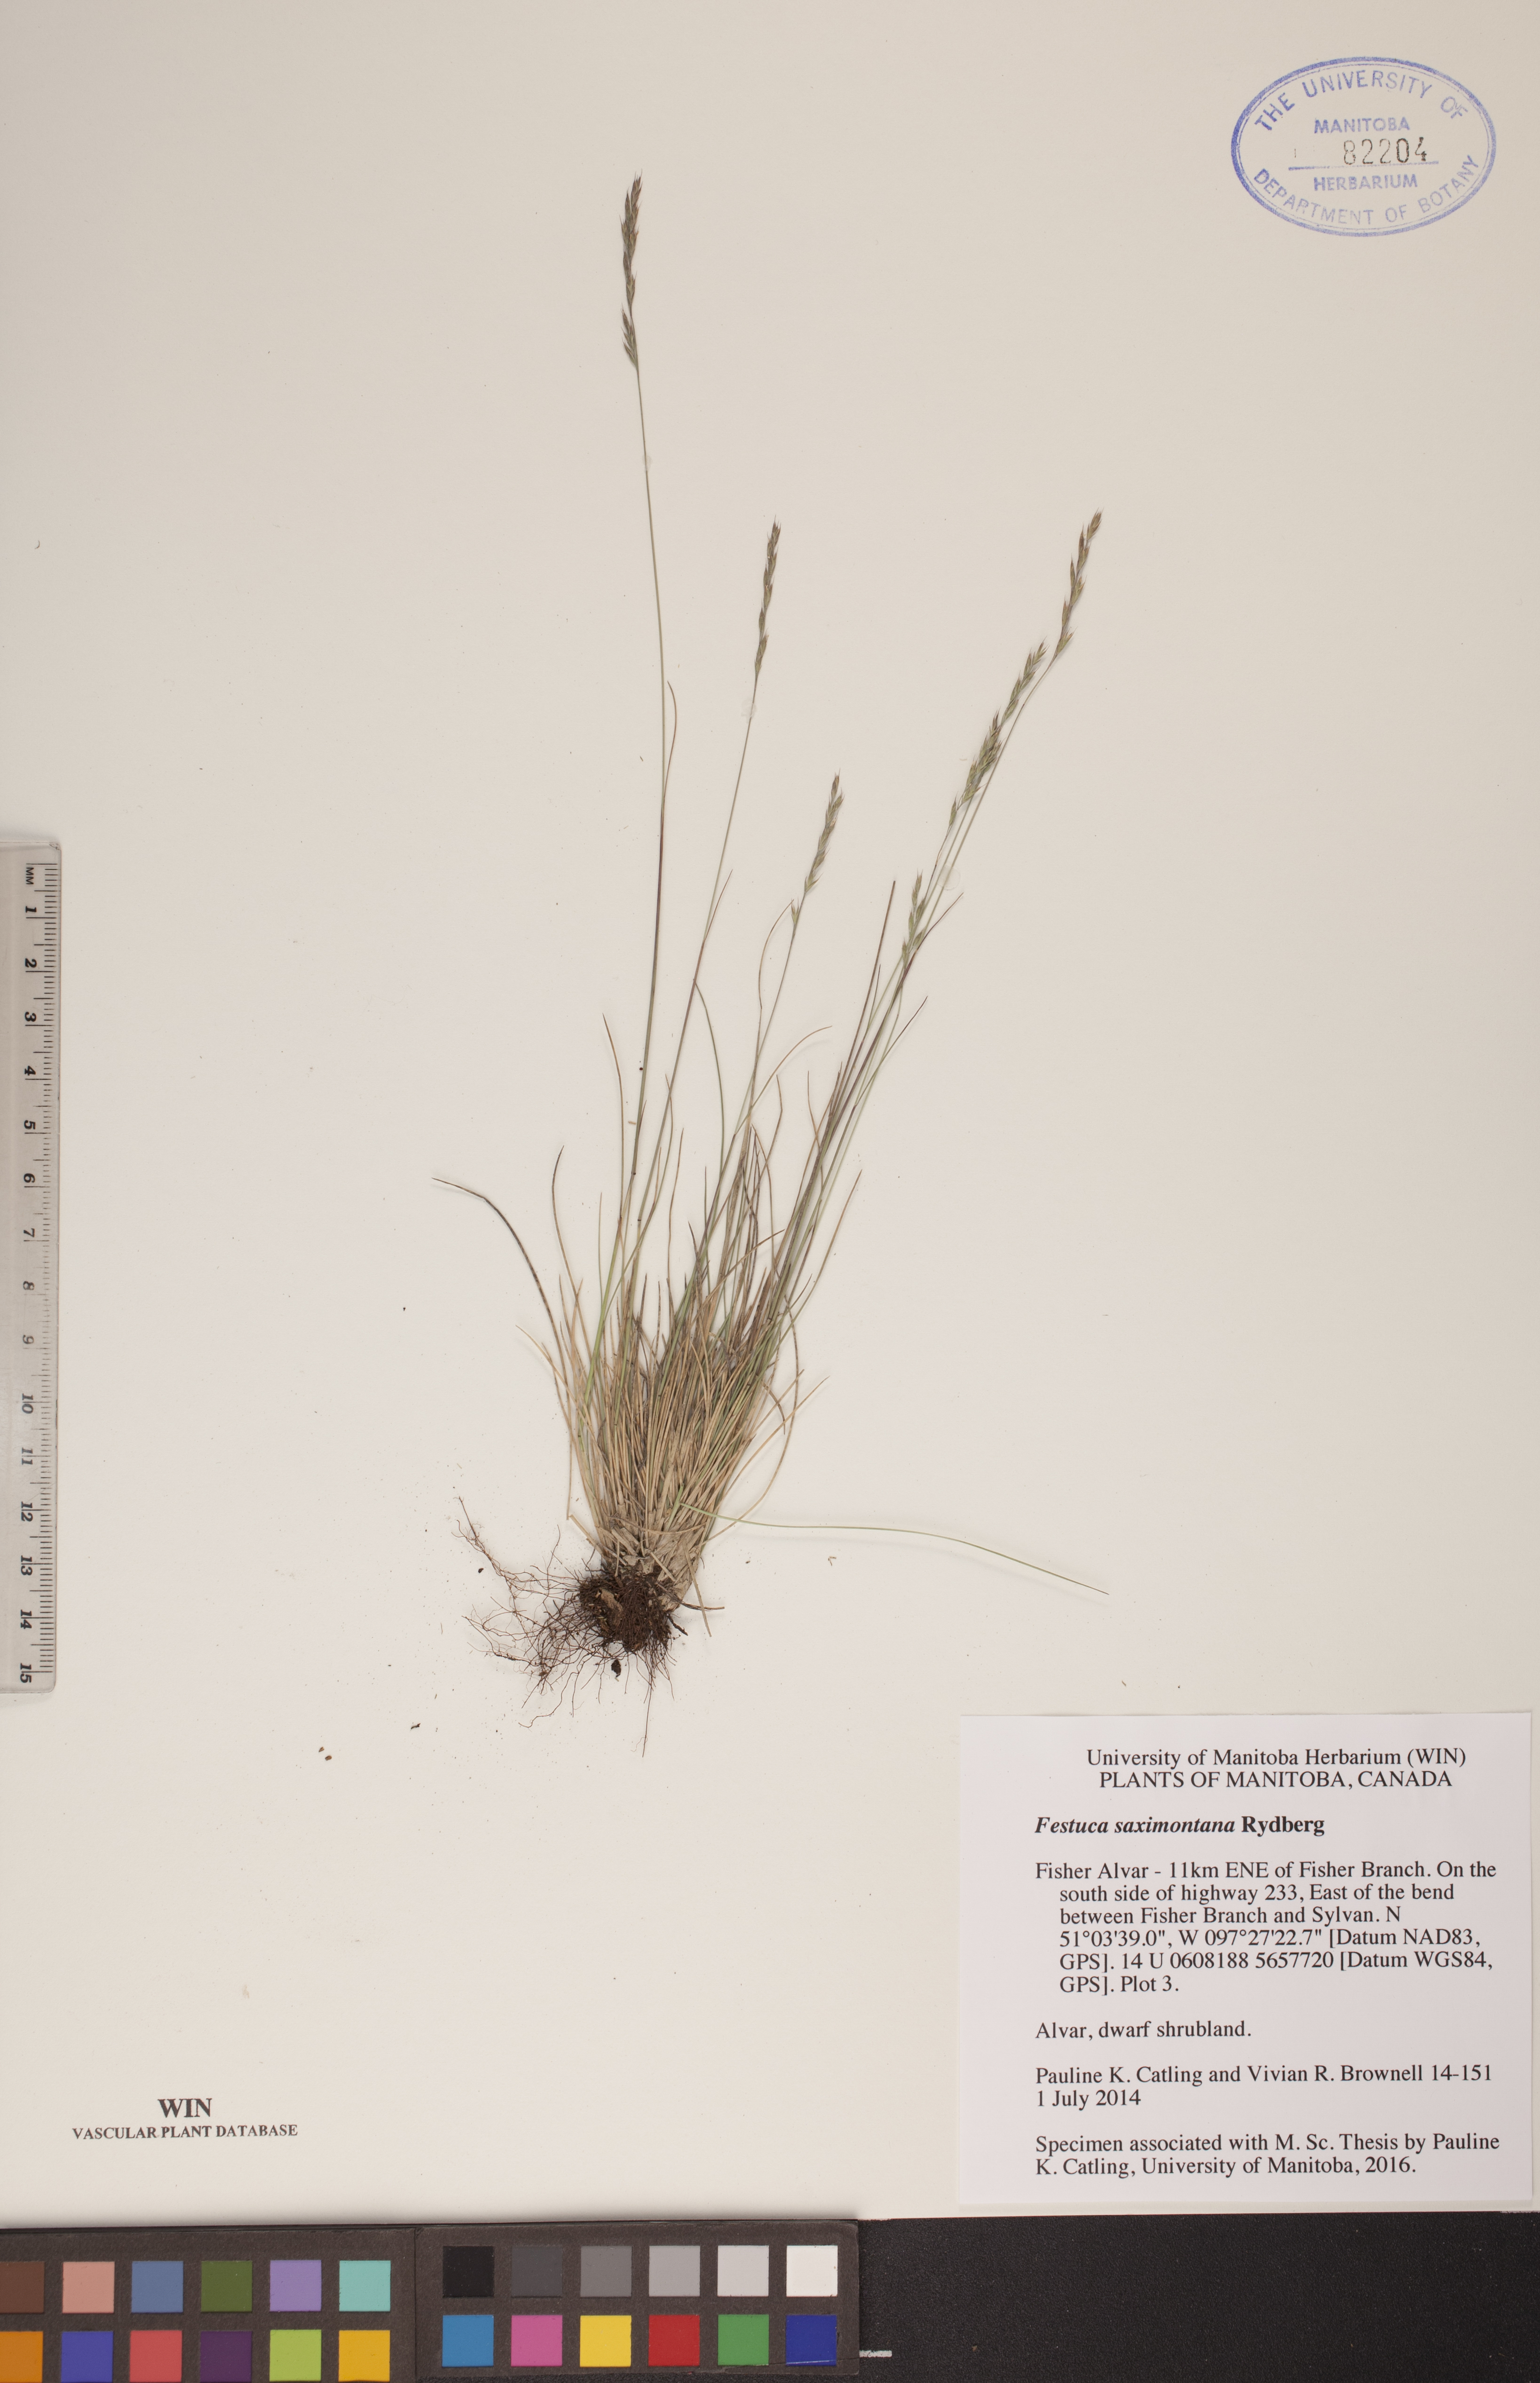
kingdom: Plantae
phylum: Tracheophyta
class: Liliopsida
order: Poales
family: Poaceae
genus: Festuca
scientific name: Festuca saximontana
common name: Mountain fescue
